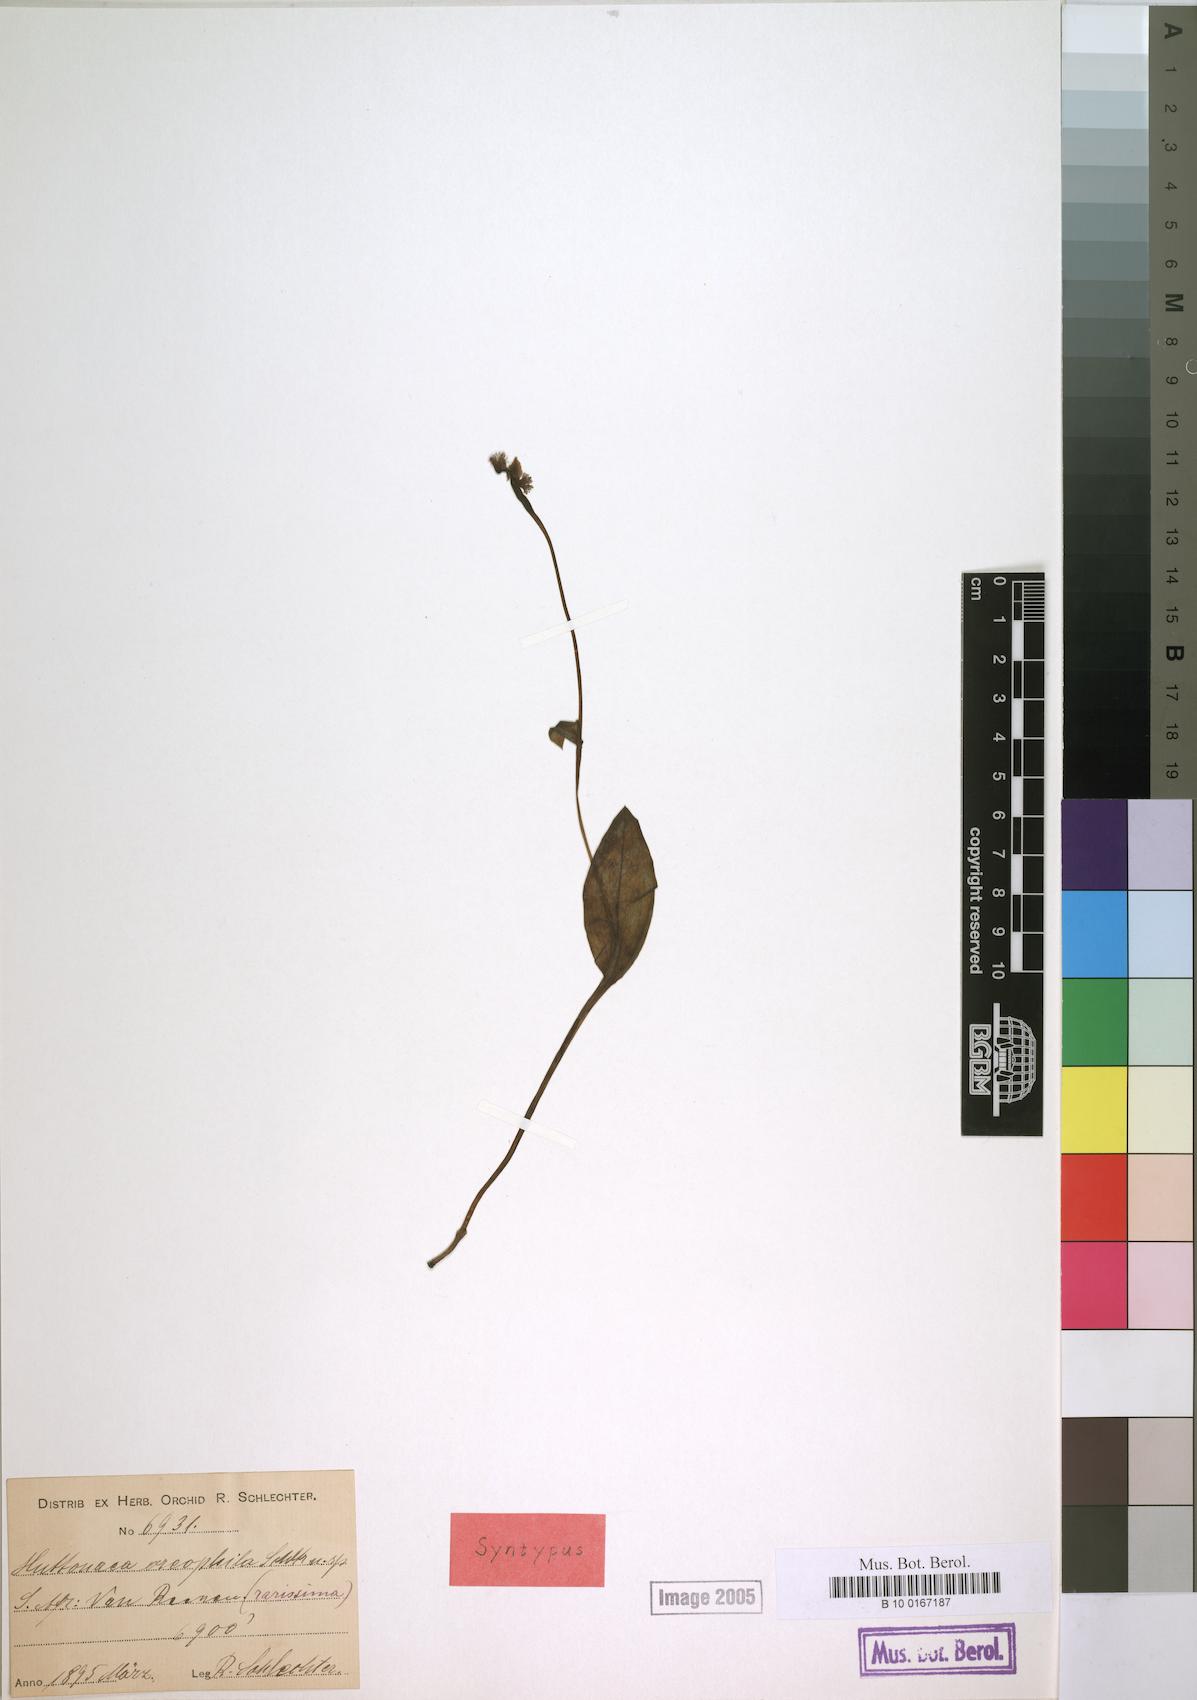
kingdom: Plantae
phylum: Tracheophyta
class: Liliopsida
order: Asparagales
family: Orchidaceae
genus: Huttonaea
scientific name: Huttonaea oreophila
